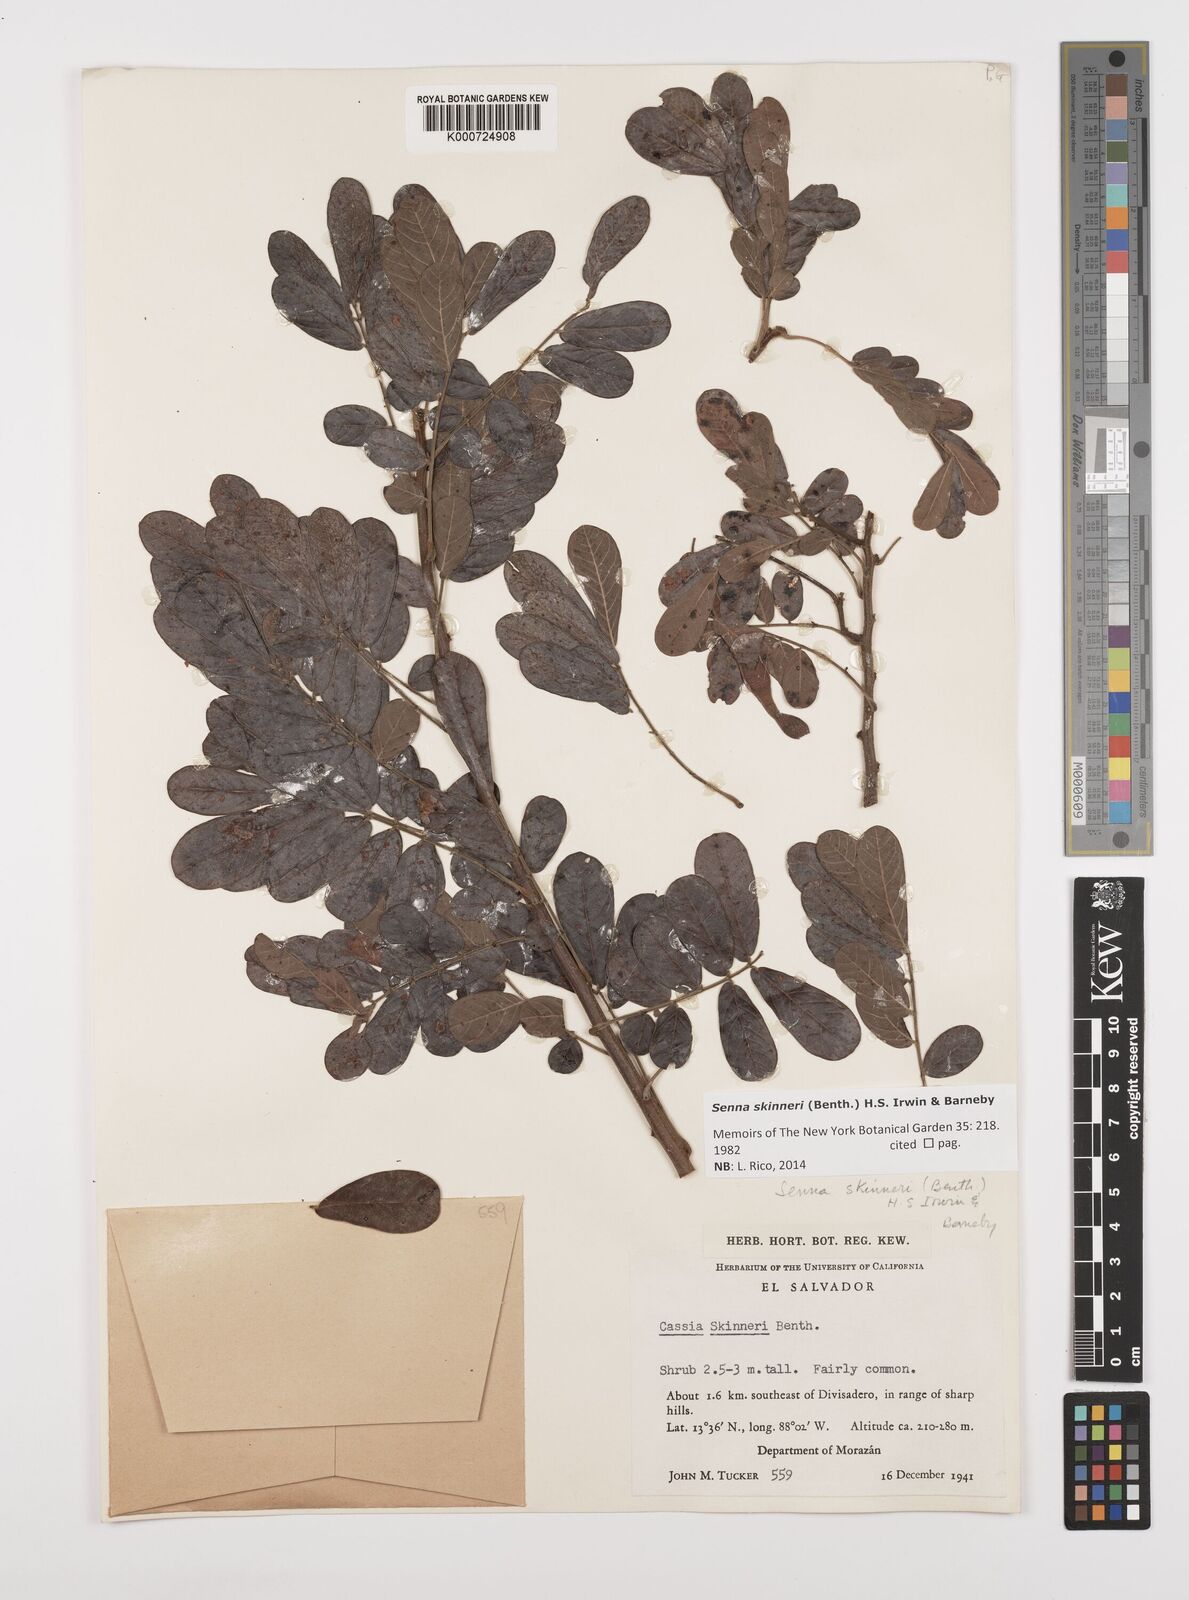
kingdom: Plantae
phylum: Tracheophyta
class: Magnoliopsida
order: Fabales
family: Fabaceae
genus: Senna
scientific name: Senna skinneri
